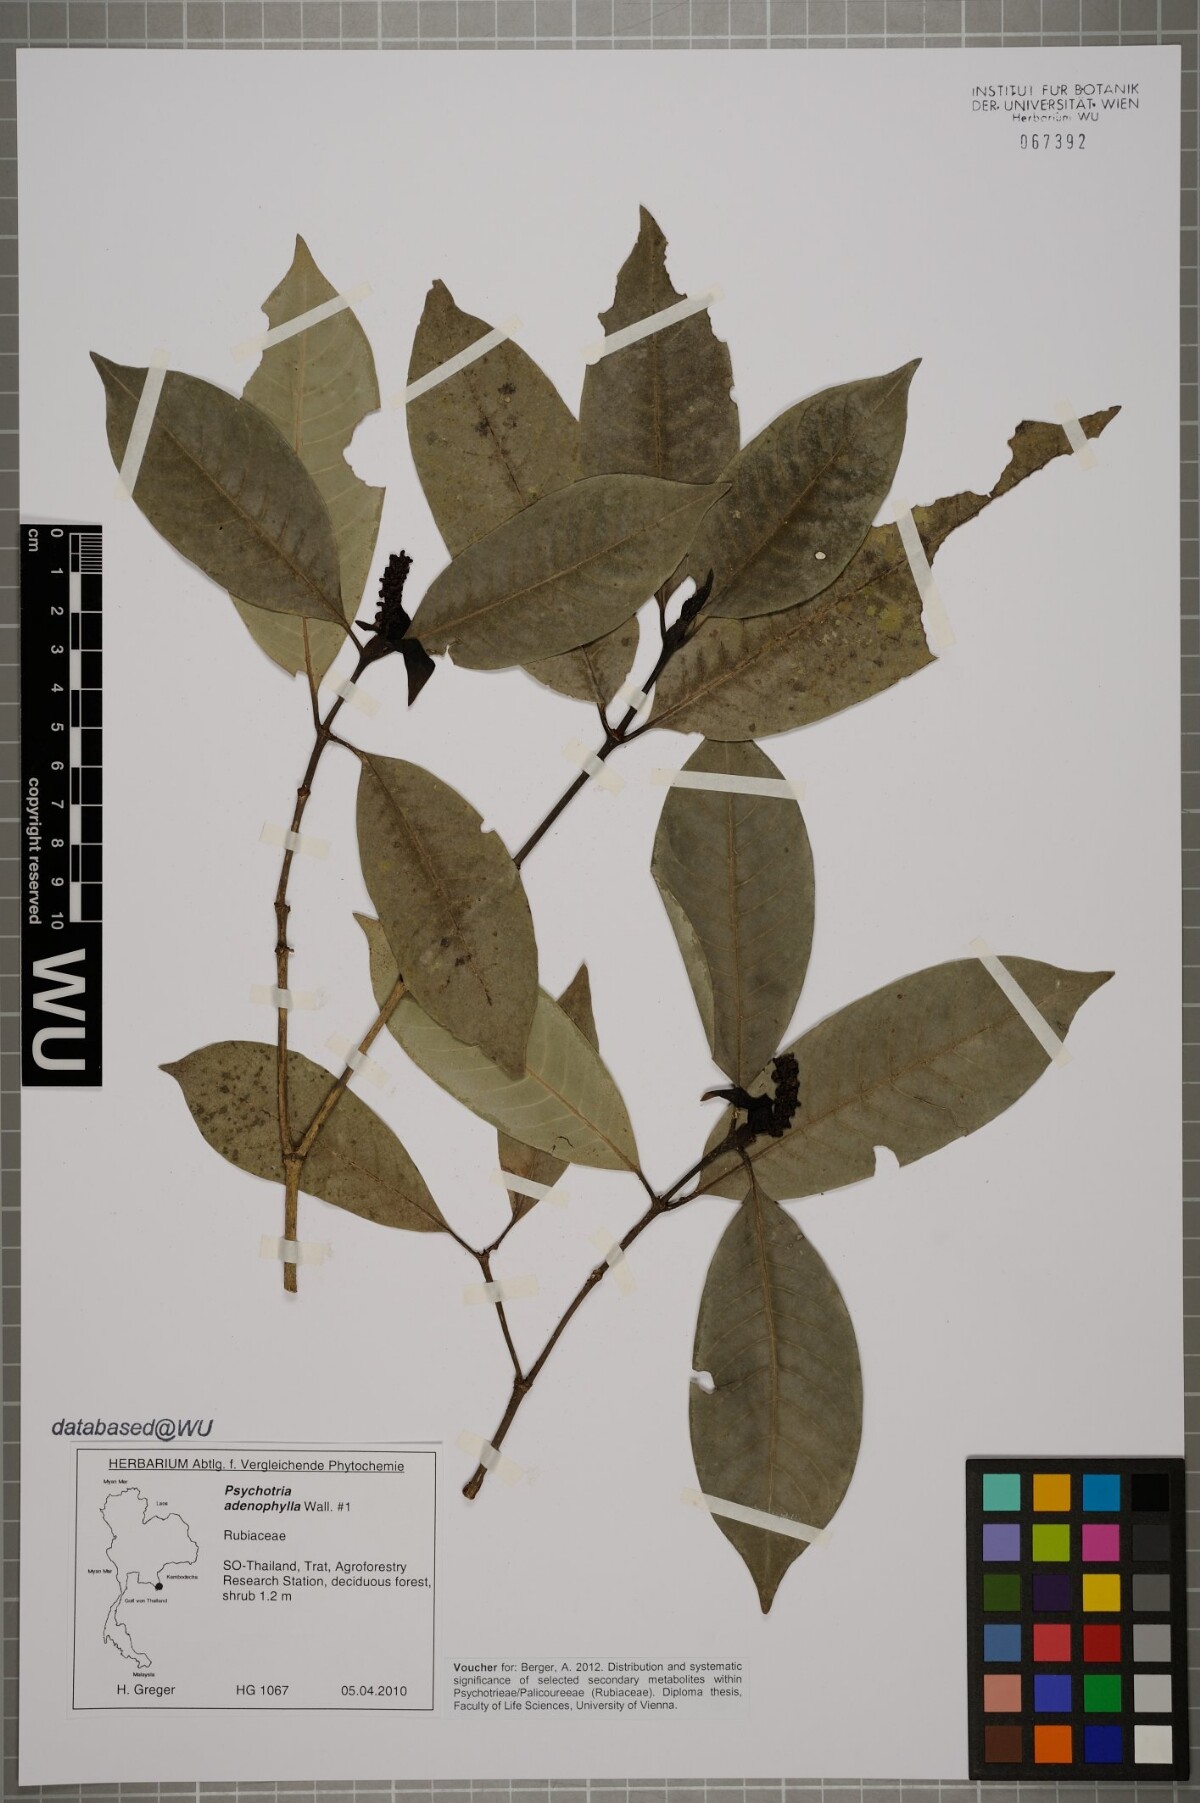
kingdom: Plantae
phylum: Tracheophyta
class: Magnoliopsida
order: Gentianales
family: Rubiaceae
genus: Psychotria
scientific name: Psychotria adenophylla
